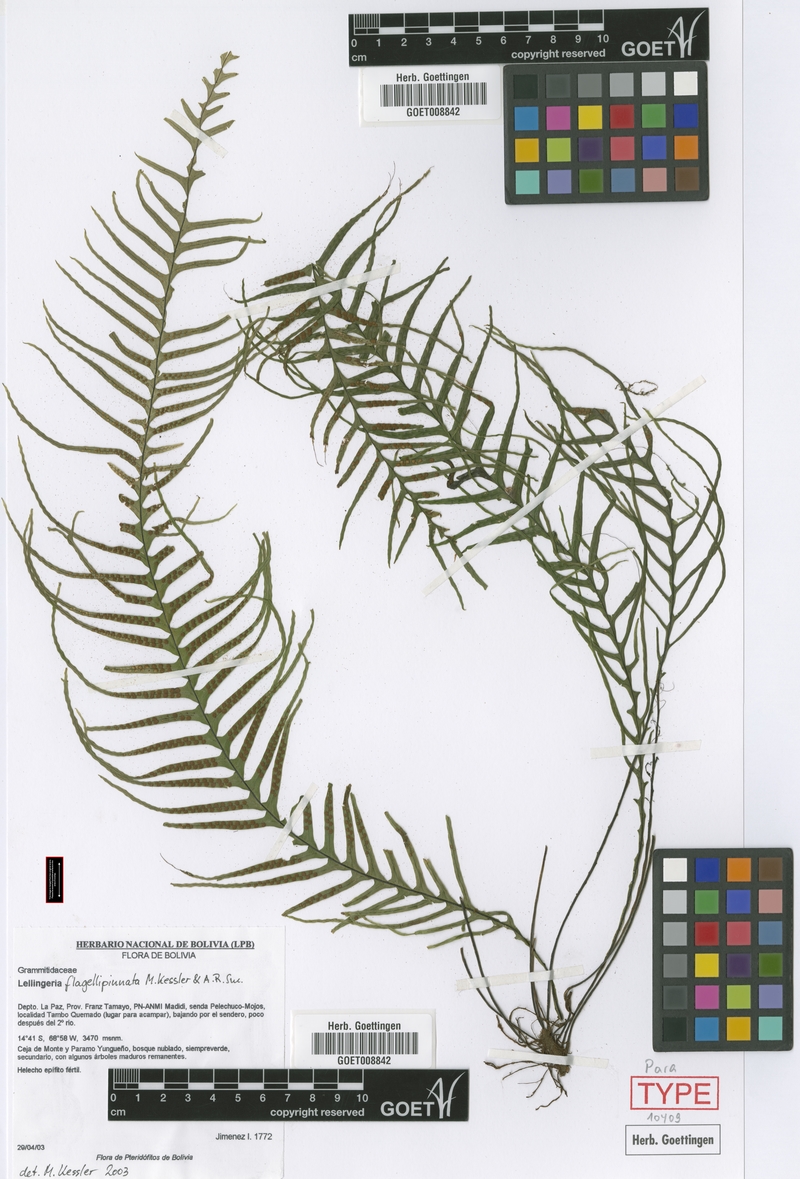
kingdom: Plantae
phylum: Tracheophyta
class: Polypodiopsida
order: Polypodiales
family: Polypodiaceae
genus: Lellingeria
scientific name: Lellingeria flagellipinnata
